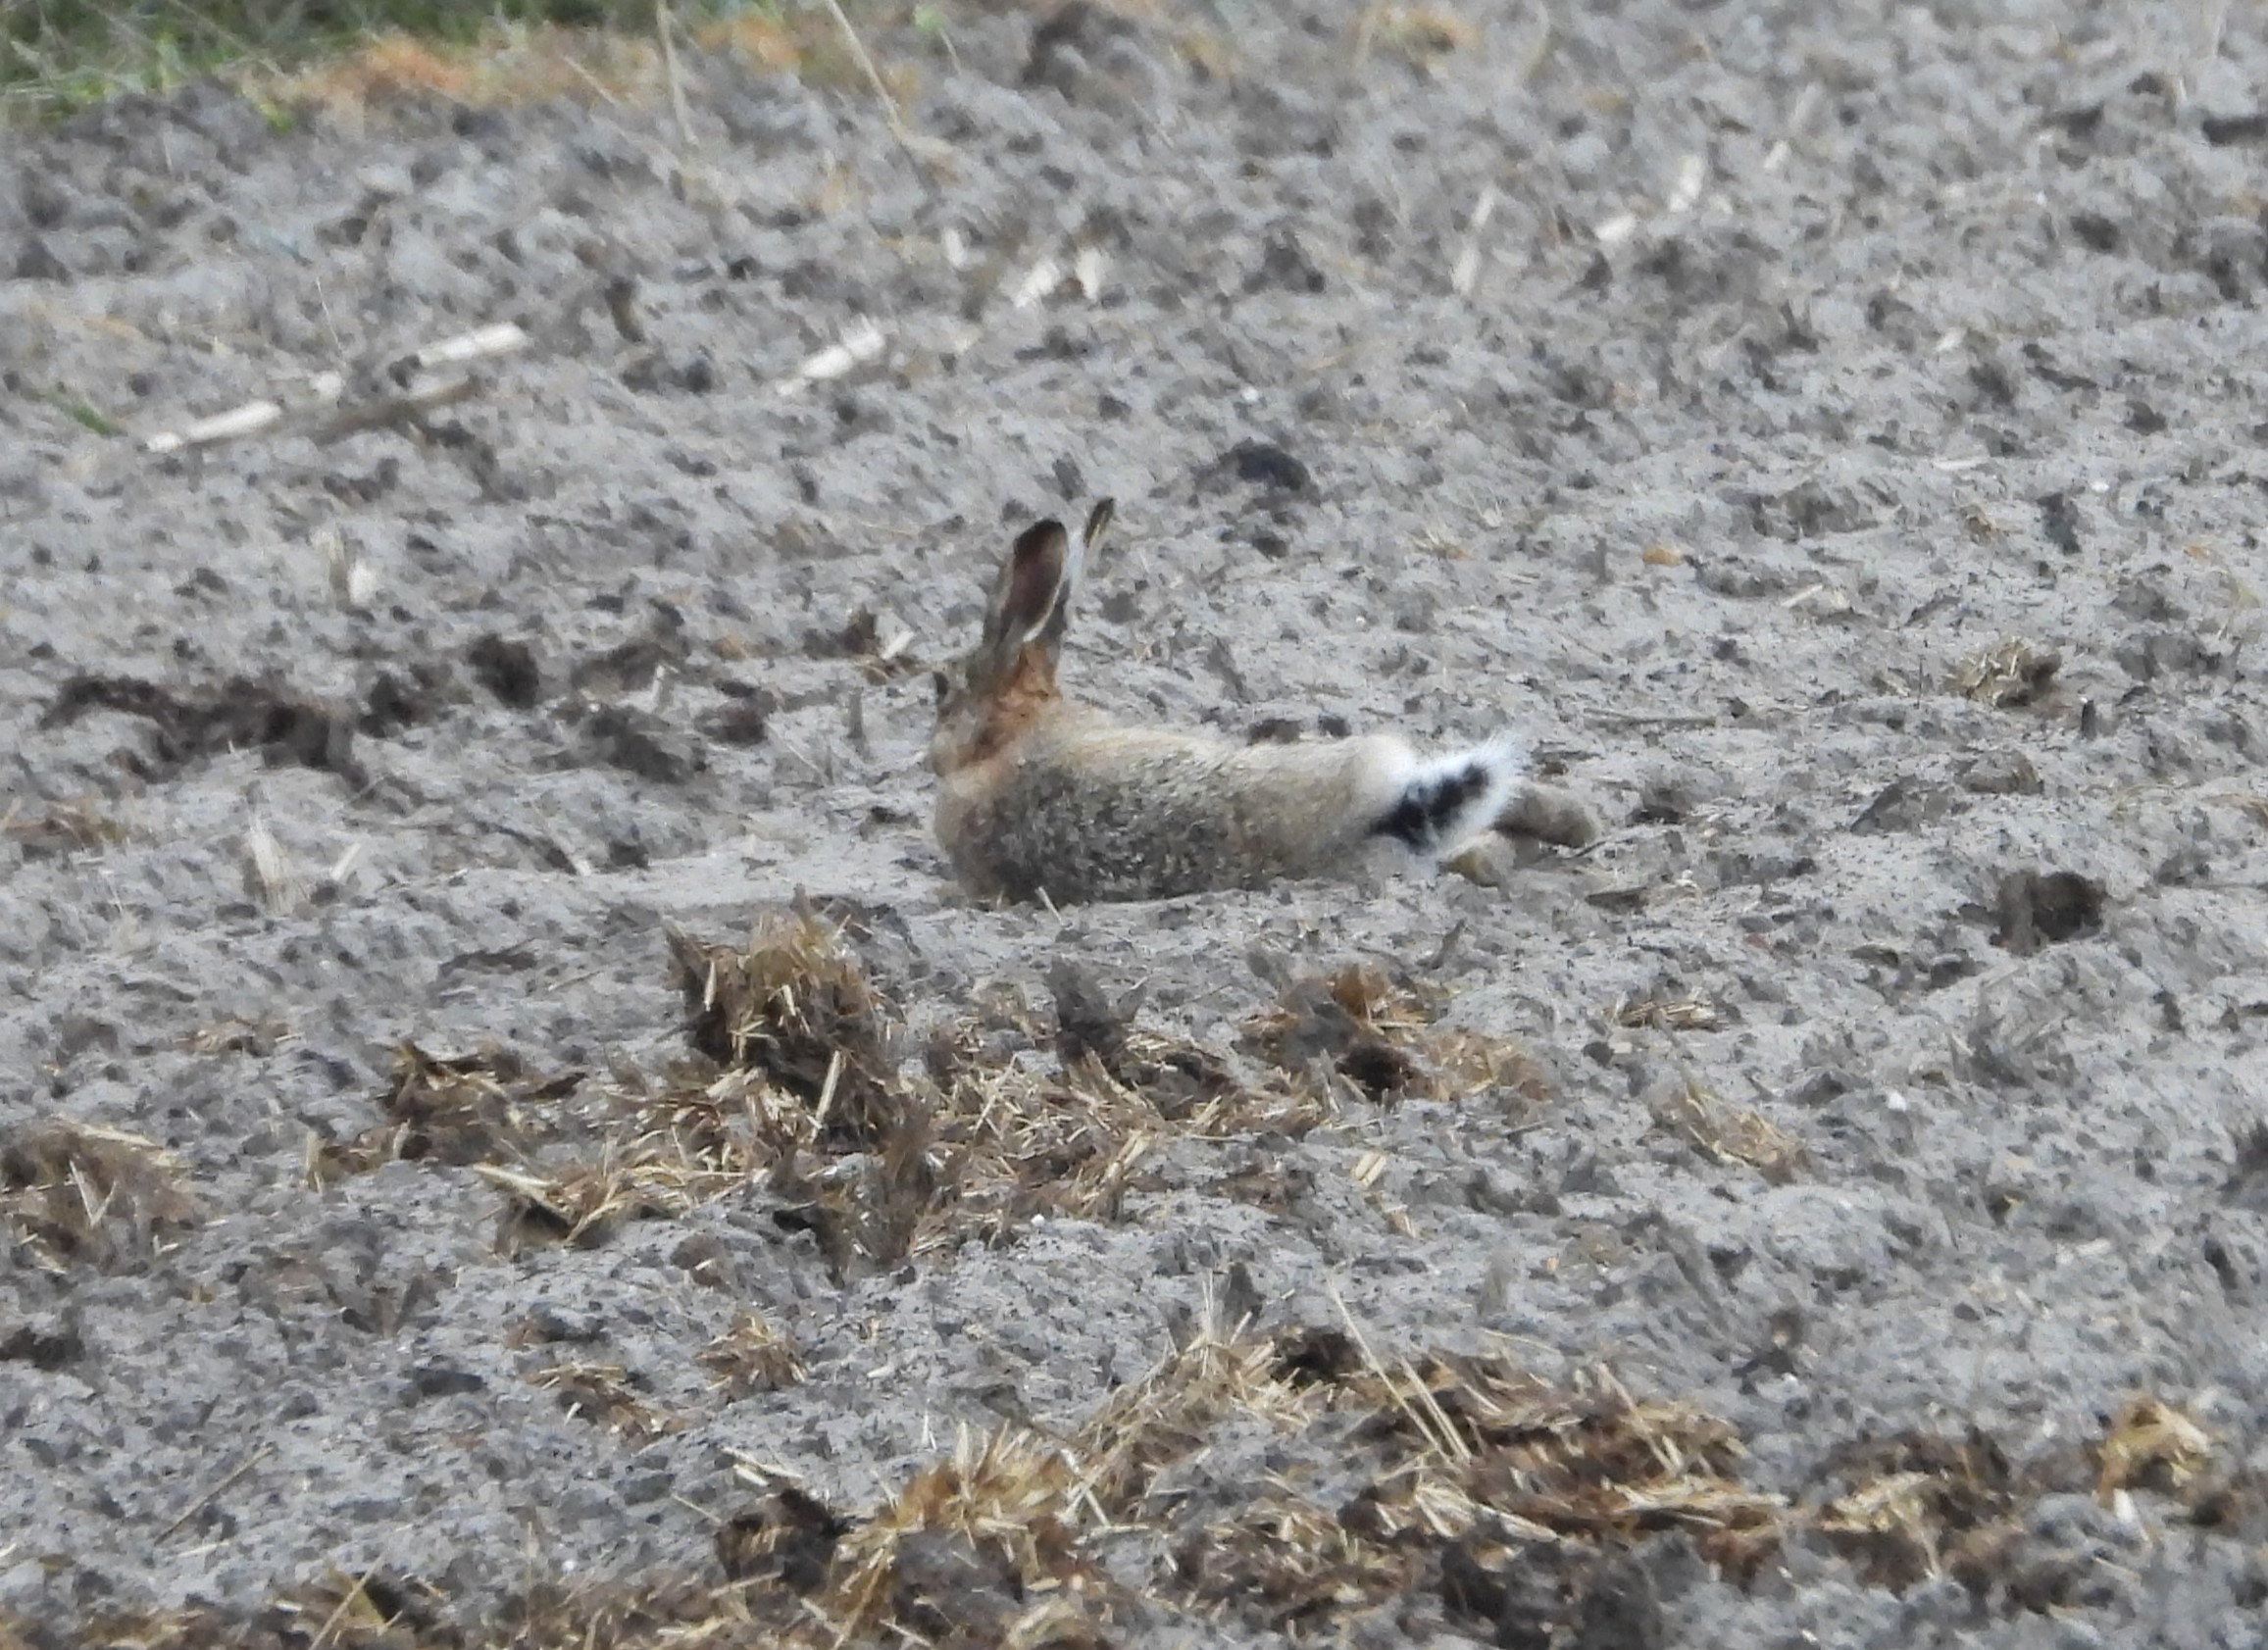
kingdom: Animalia
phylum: Chordata
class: Mammalia
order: Lagomorpha
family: Leporidae
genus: Lepus
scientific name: Lepus europaeus
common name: Hare
